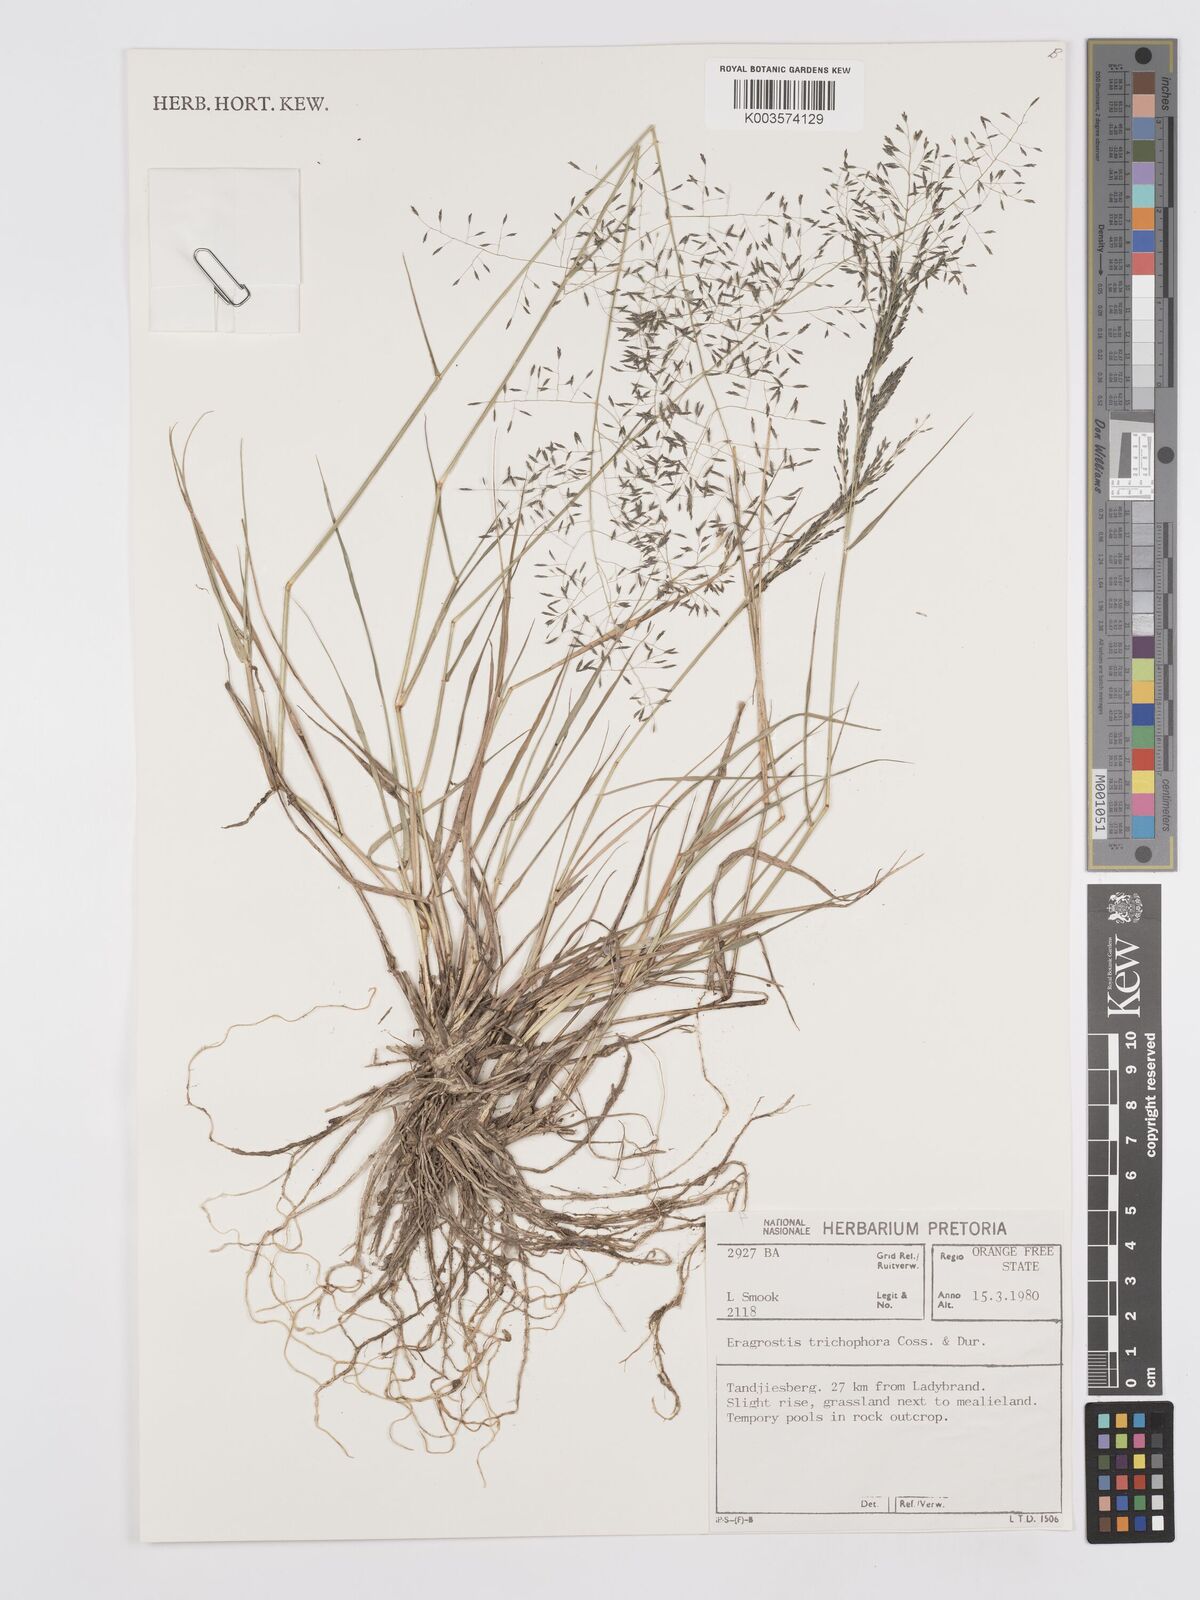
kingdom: Plantae
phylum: Tracheophyta
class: Liliopsida
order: Poales
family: Poaceae
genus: Eragrostis
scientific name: Eragrostis cylindriflora
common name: Cylinderflower lovegrass
